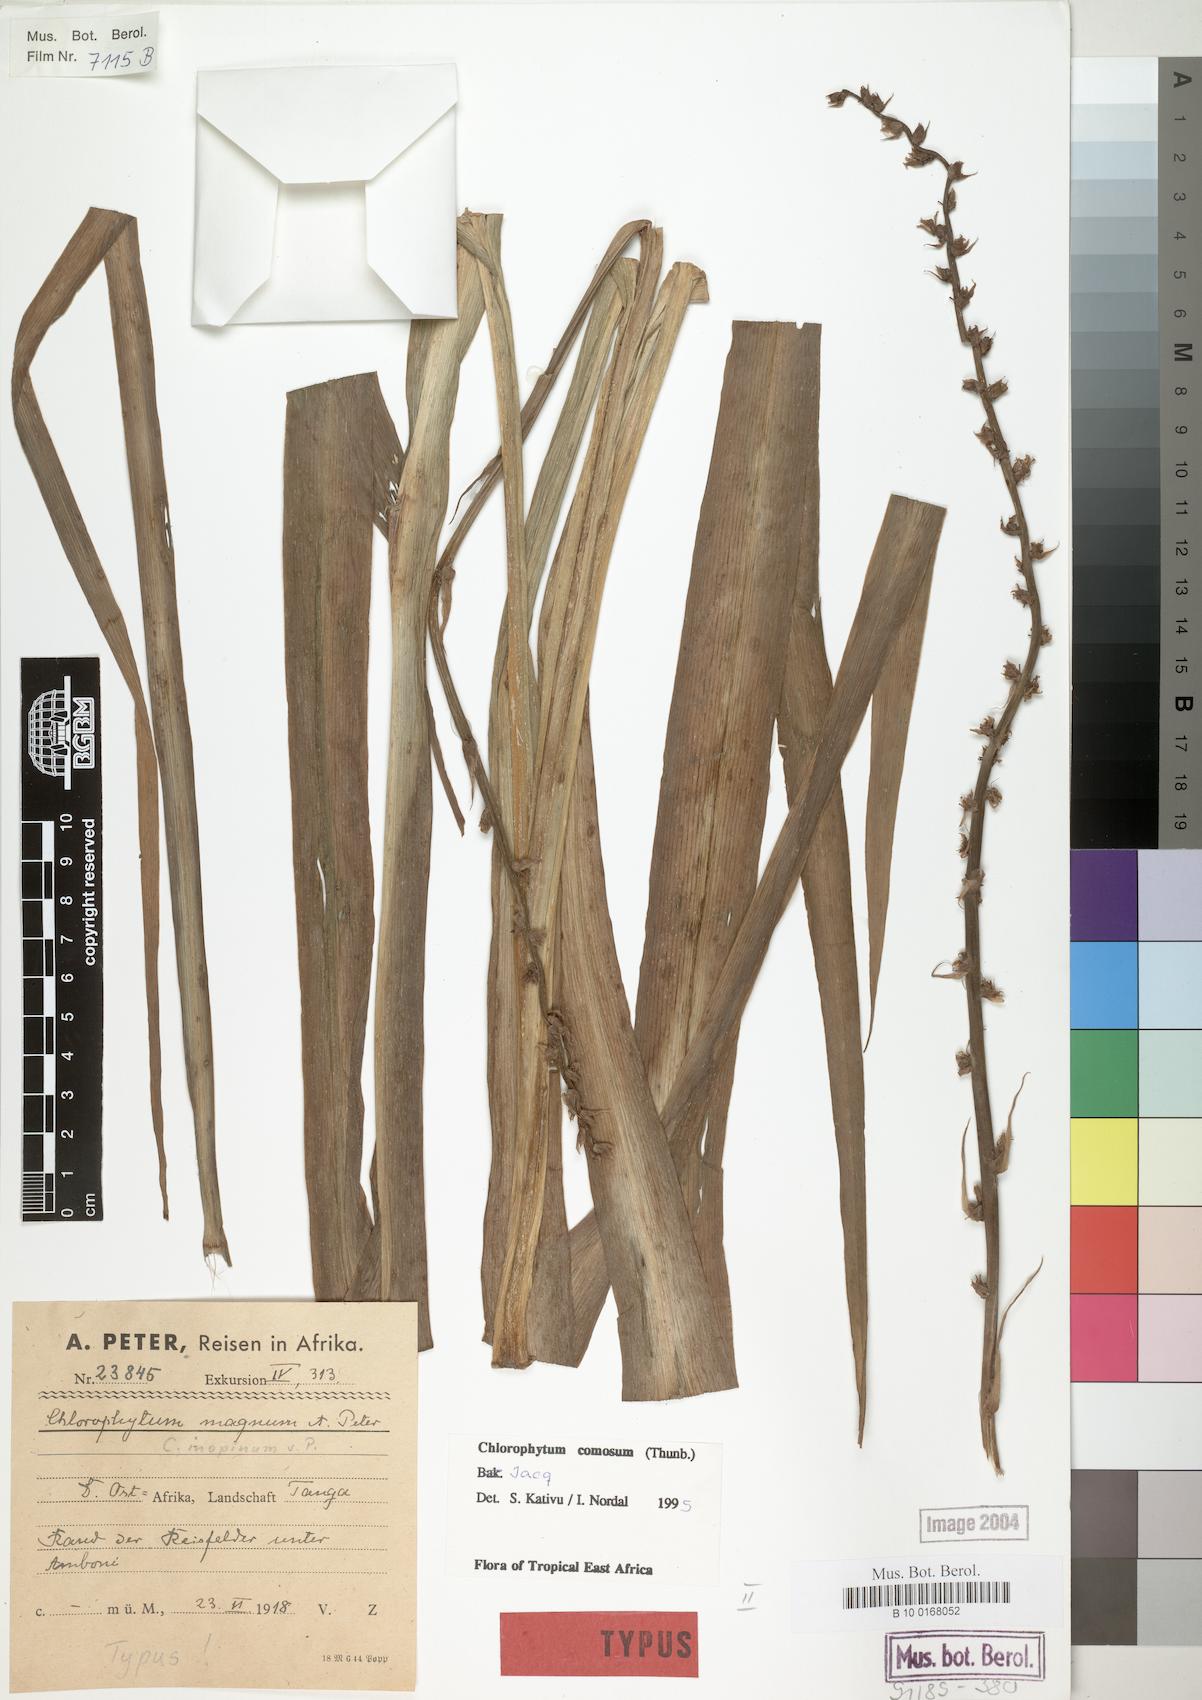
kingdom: Plantae
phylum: Tracheophyta
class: Liliopsida
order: Asparagales
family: Asparagaceae
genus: Chlorophytum
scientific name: Chlorophytum comosum
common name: Spider plant
